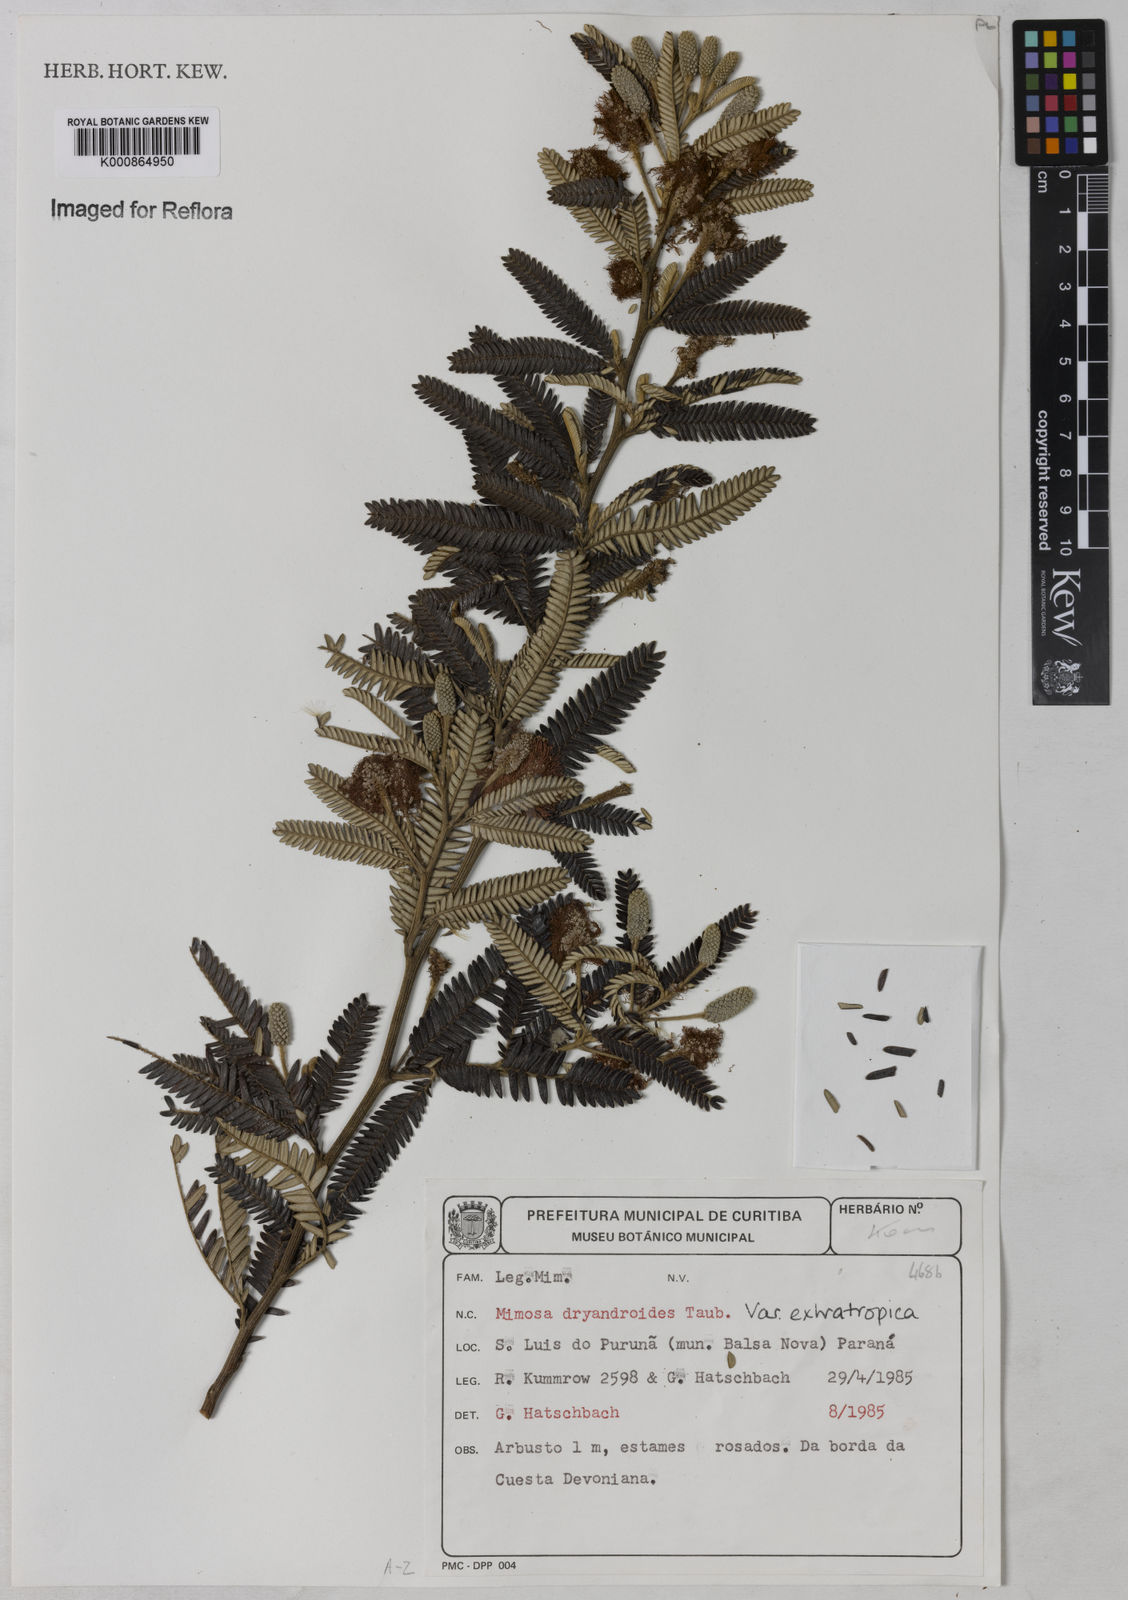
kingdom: Plantae
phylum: Tracheophyta
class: Magnoliopsida
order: Fabales
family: Fabaceae
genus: Mimosa
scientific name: Mimosa dryandroides
